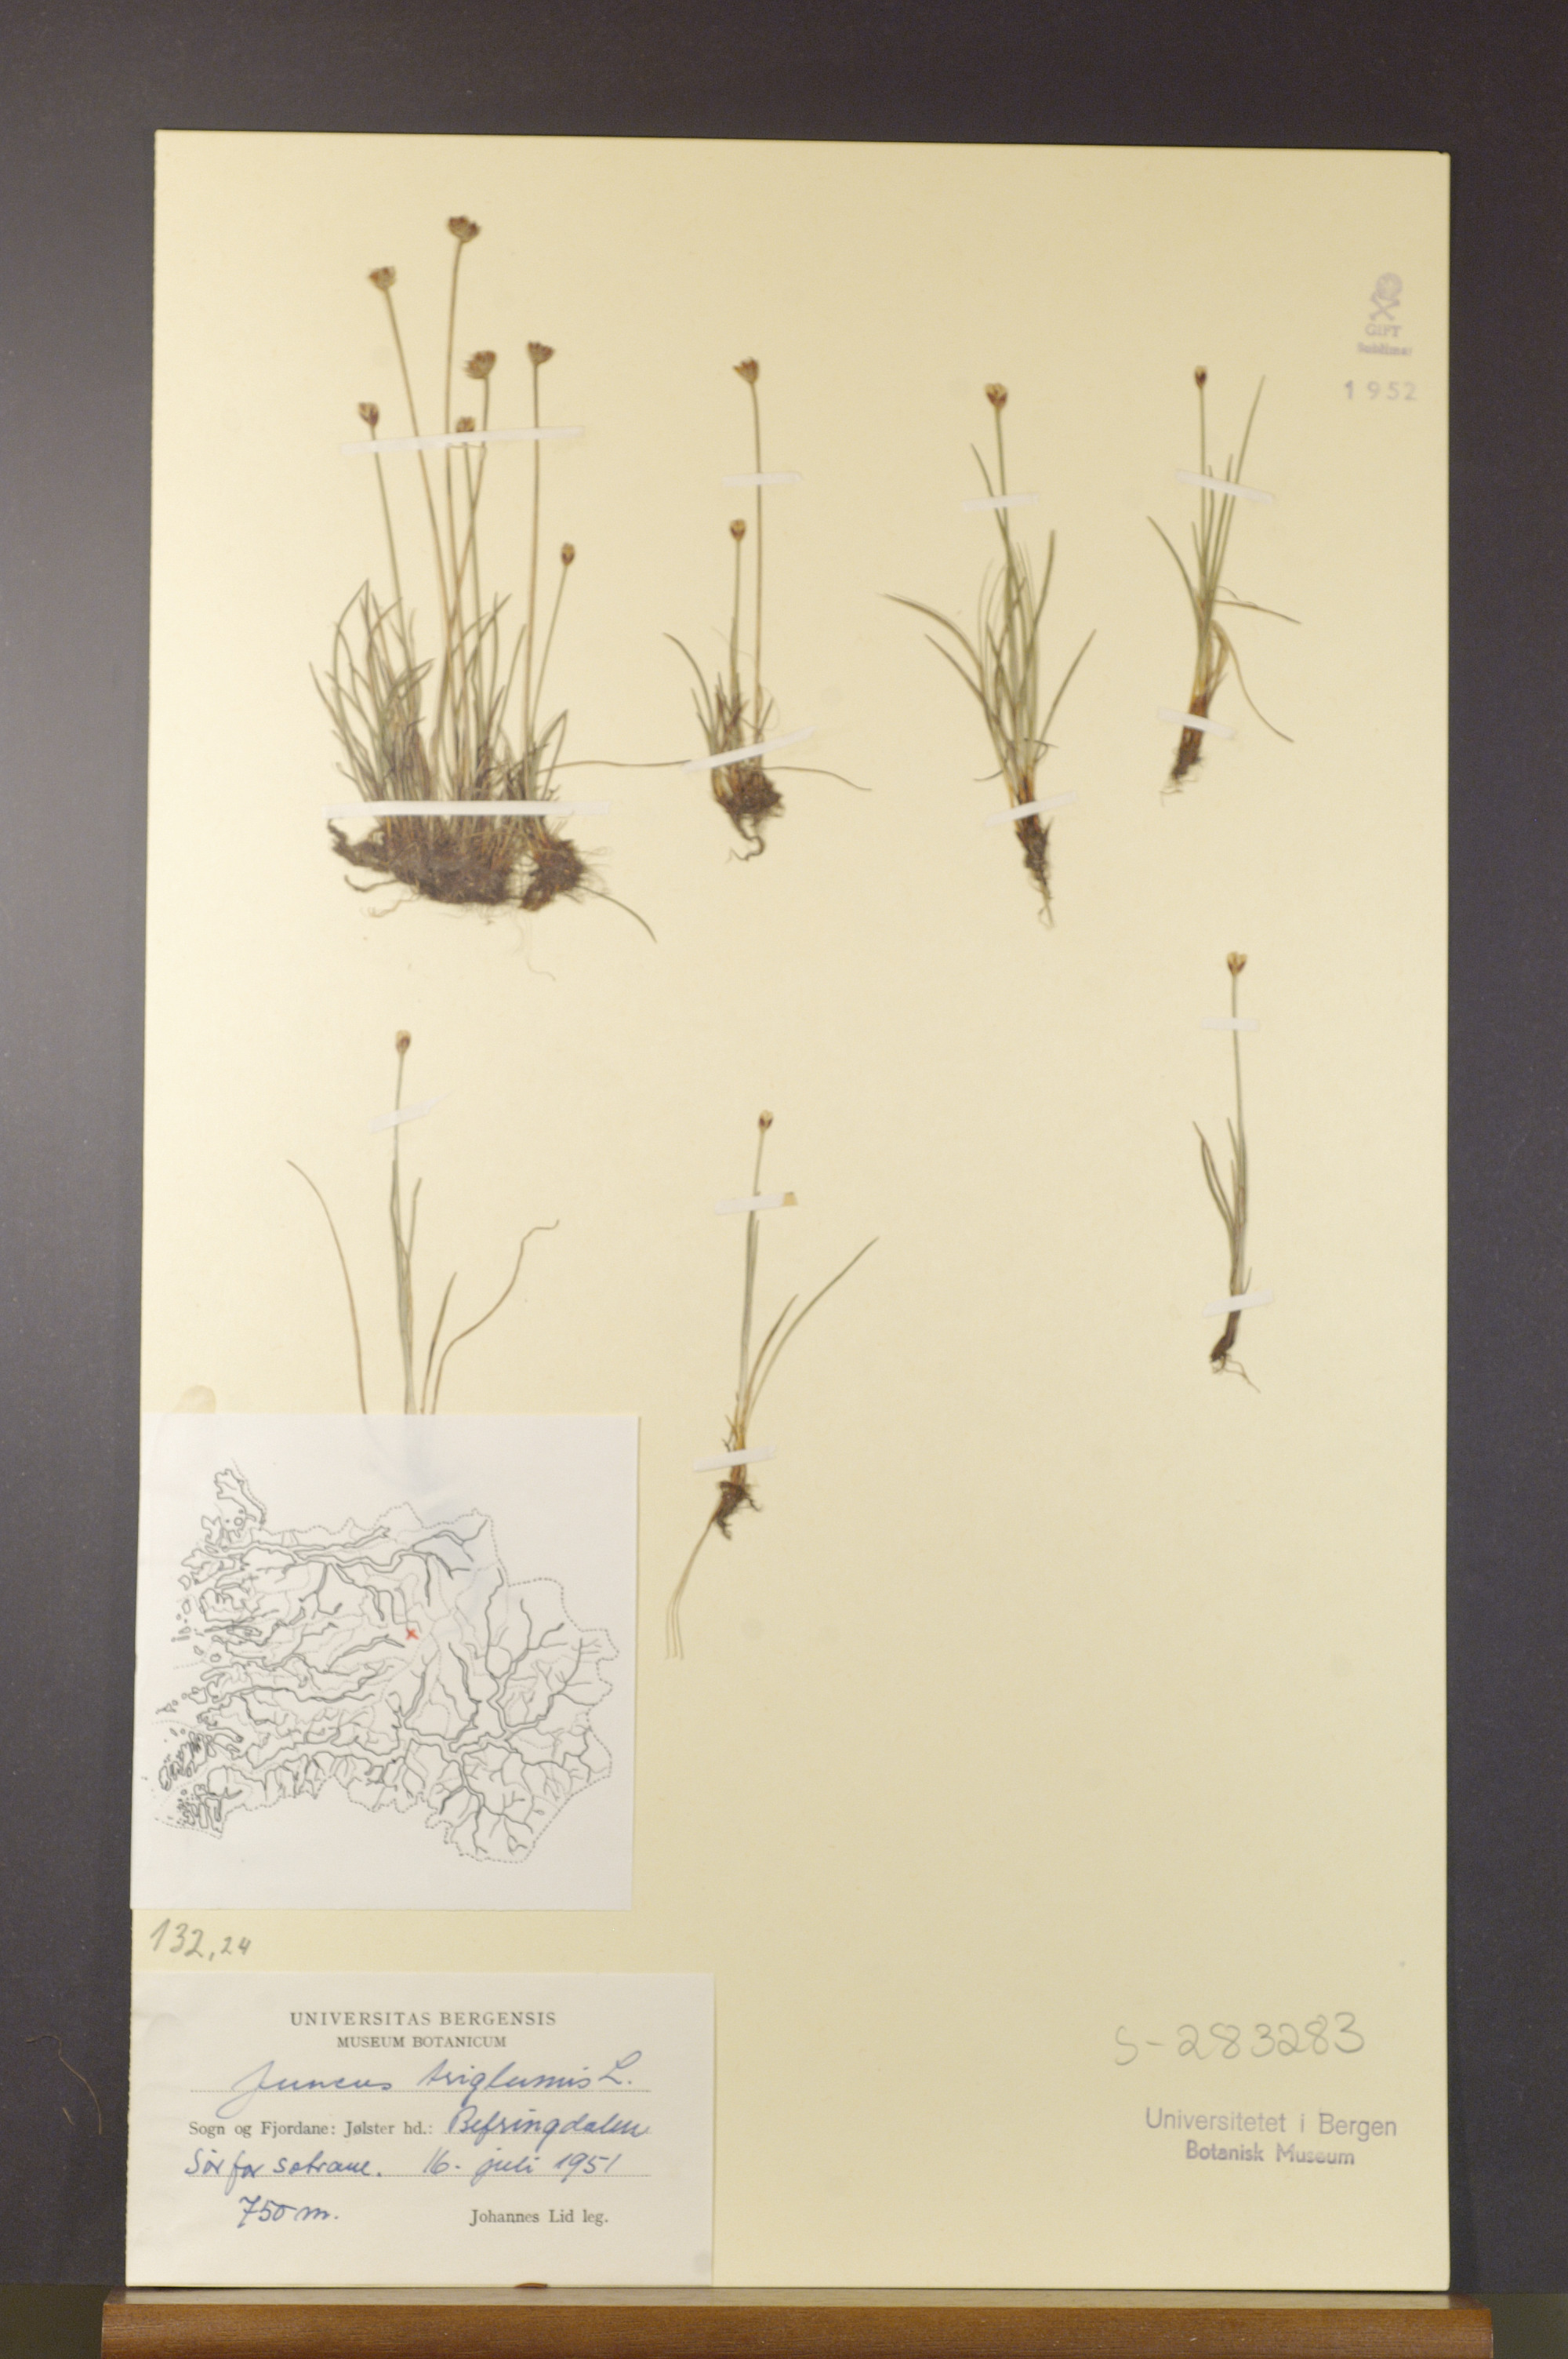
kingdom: Plantae
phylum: Tracheophyta
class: Liliopsida
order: Poales
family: Juncaceae
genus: Juncus
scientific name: Juncus triglumis
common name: Three-flowered rush
